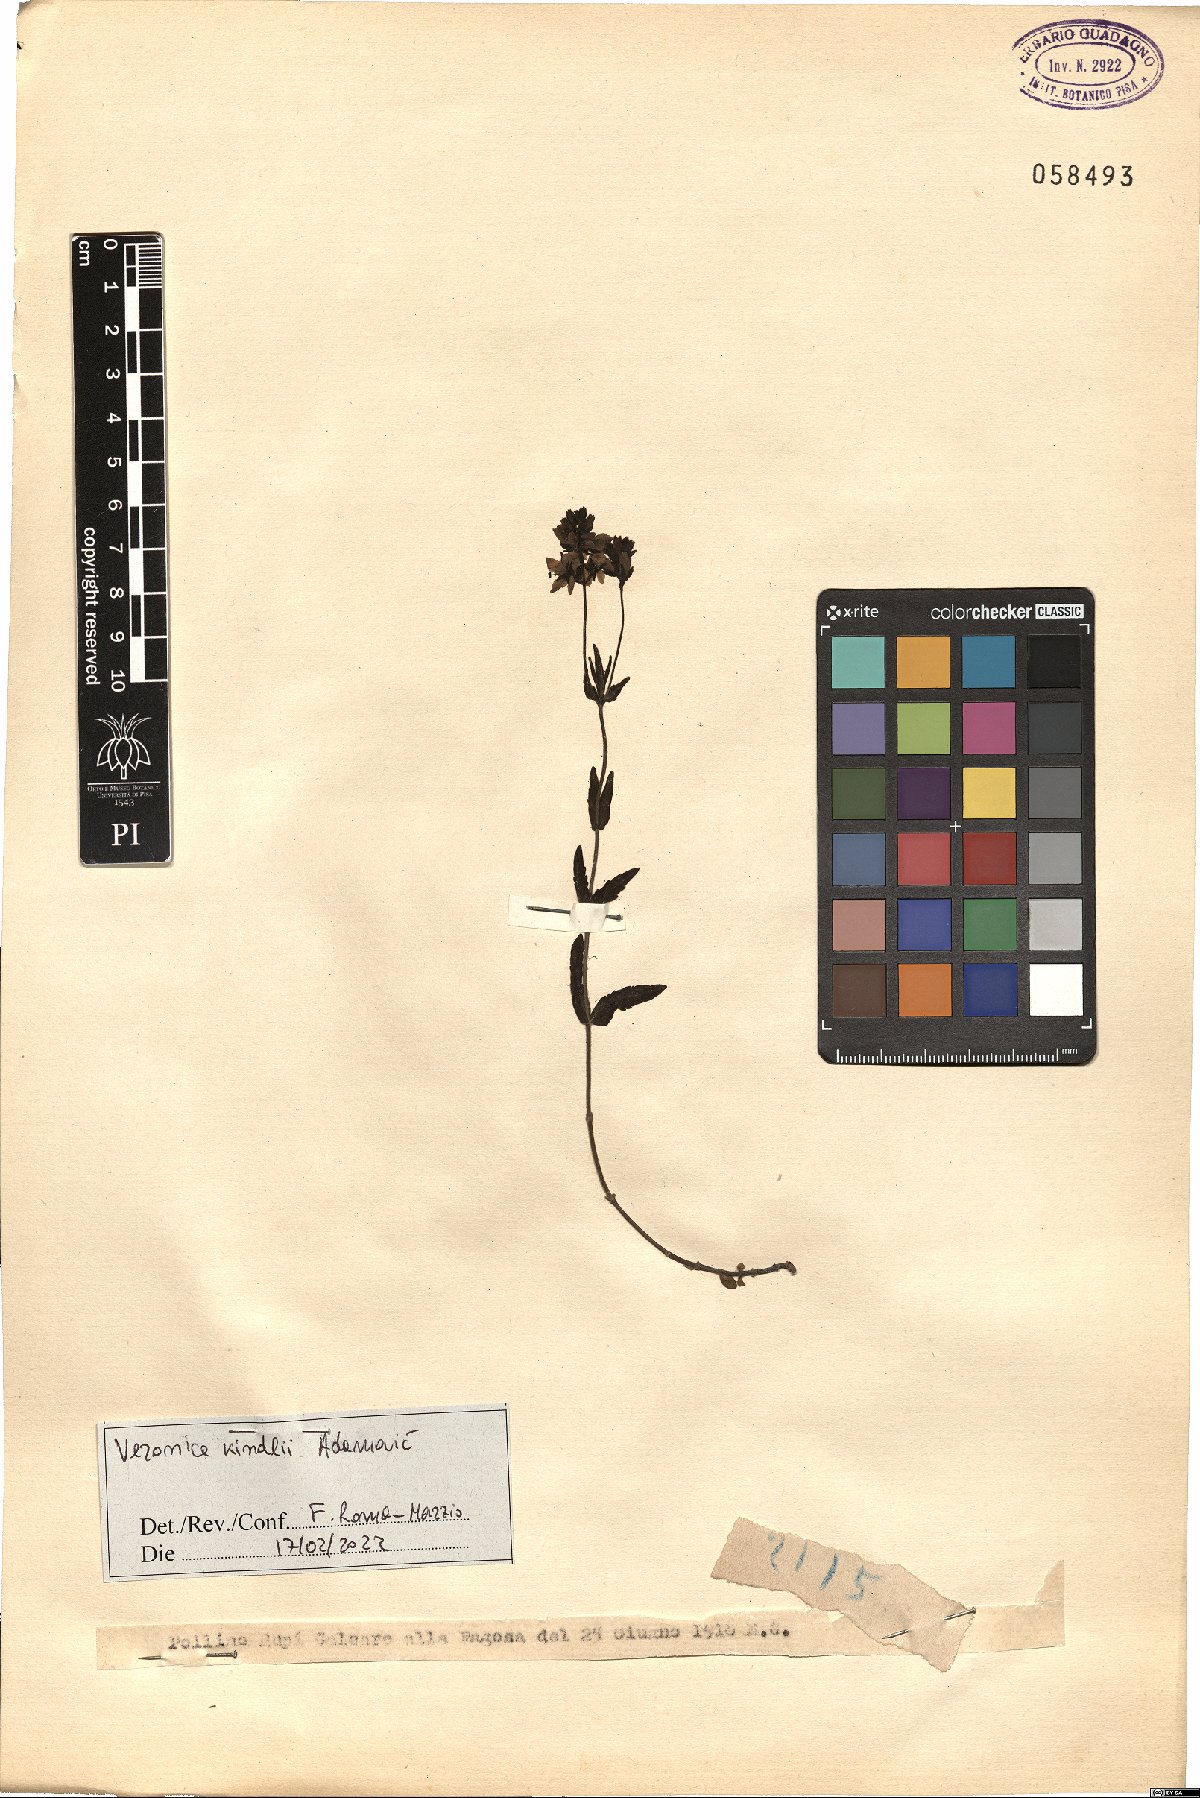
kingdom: Plantae
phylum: Tracheophyta
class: Magnoliopsida
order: Lamiales
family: Plantaginaceae
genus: Veronica
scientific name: Veronica orsiniana
